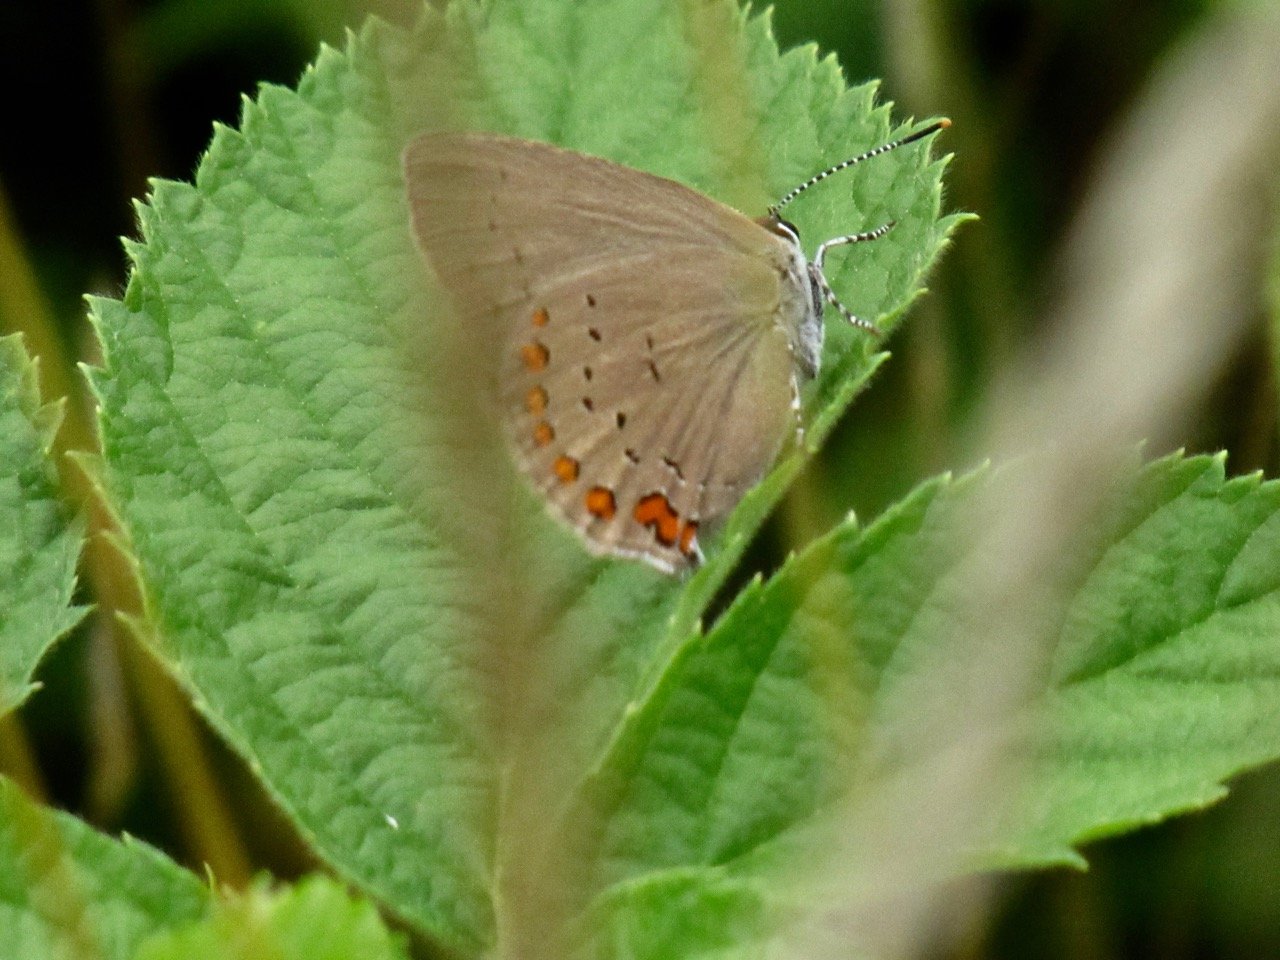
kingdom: Animalia
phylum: Arthropoda
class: Insecta
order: Lepidoptera
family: Lycaenidae
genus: Harkenclenus
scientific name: Harkenclenus titus
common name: Coral Hairstreak
